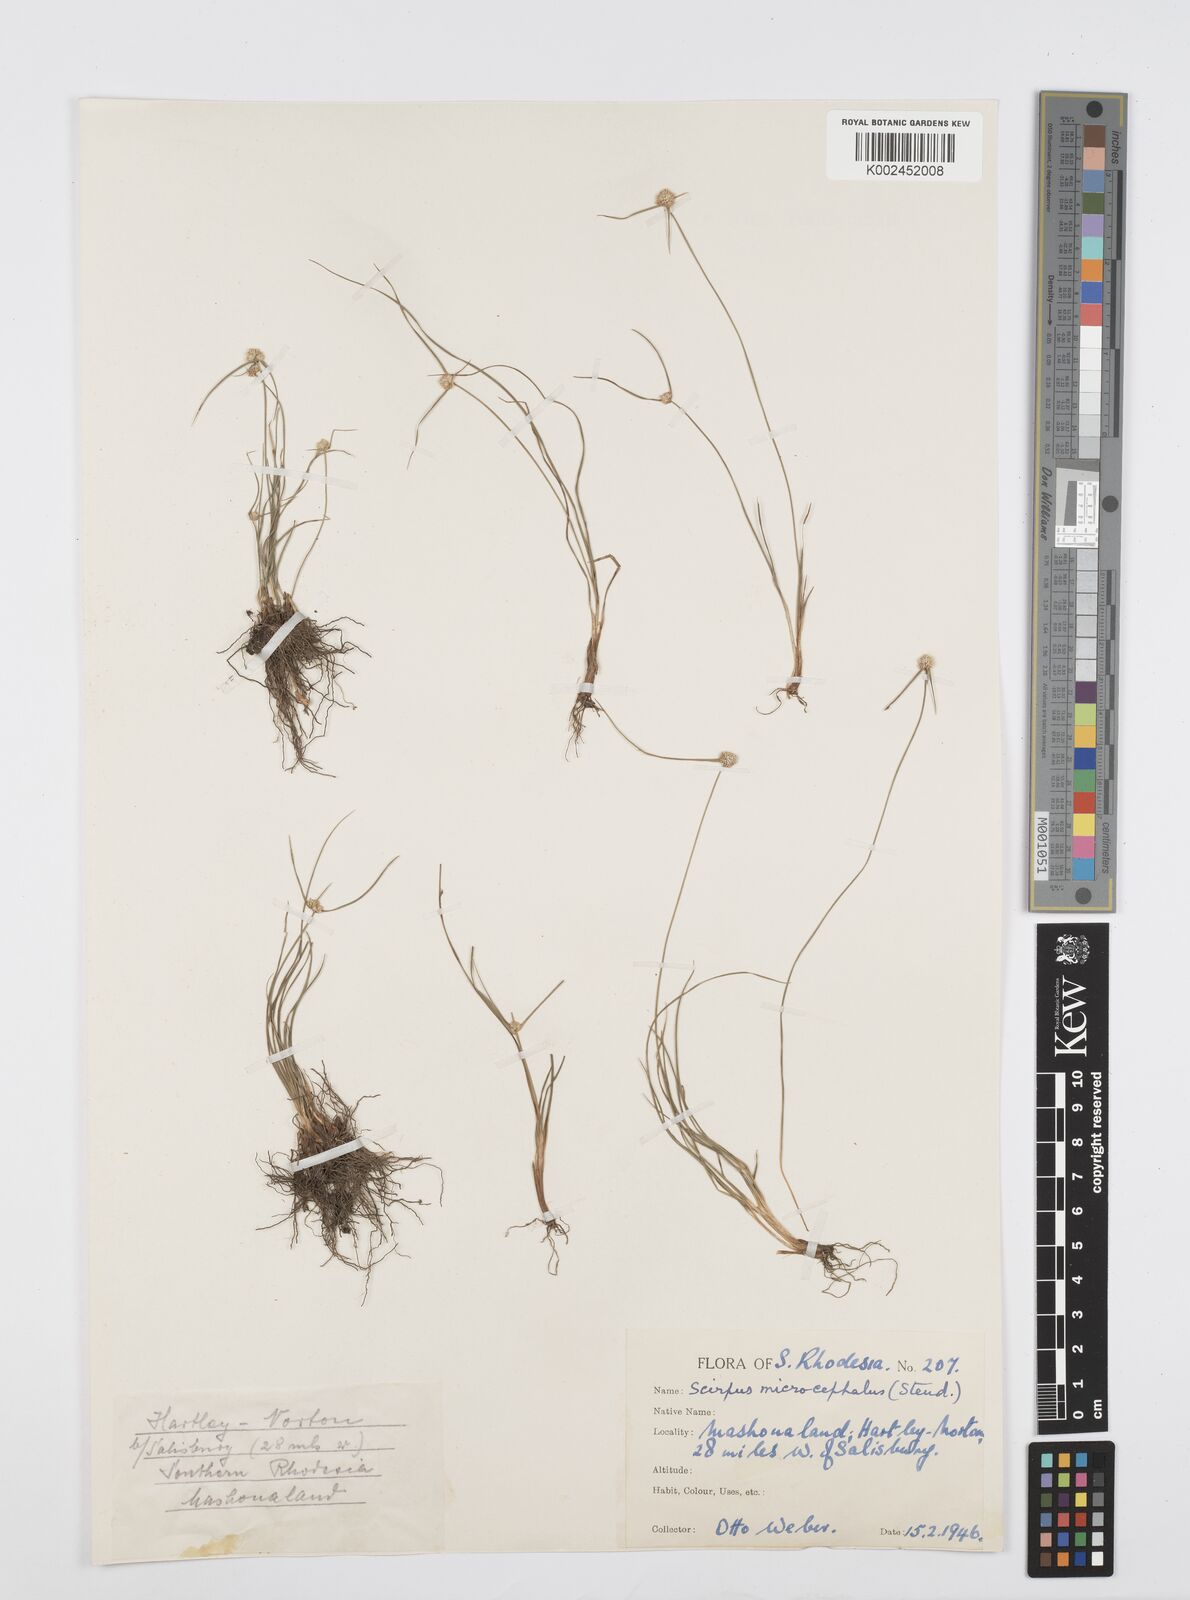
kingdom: Plantae
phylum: Tracheophyta
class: Liliopsida
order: Poales
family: Cyperaceae
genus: Cyperus
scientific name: Cyperus conglobatus
